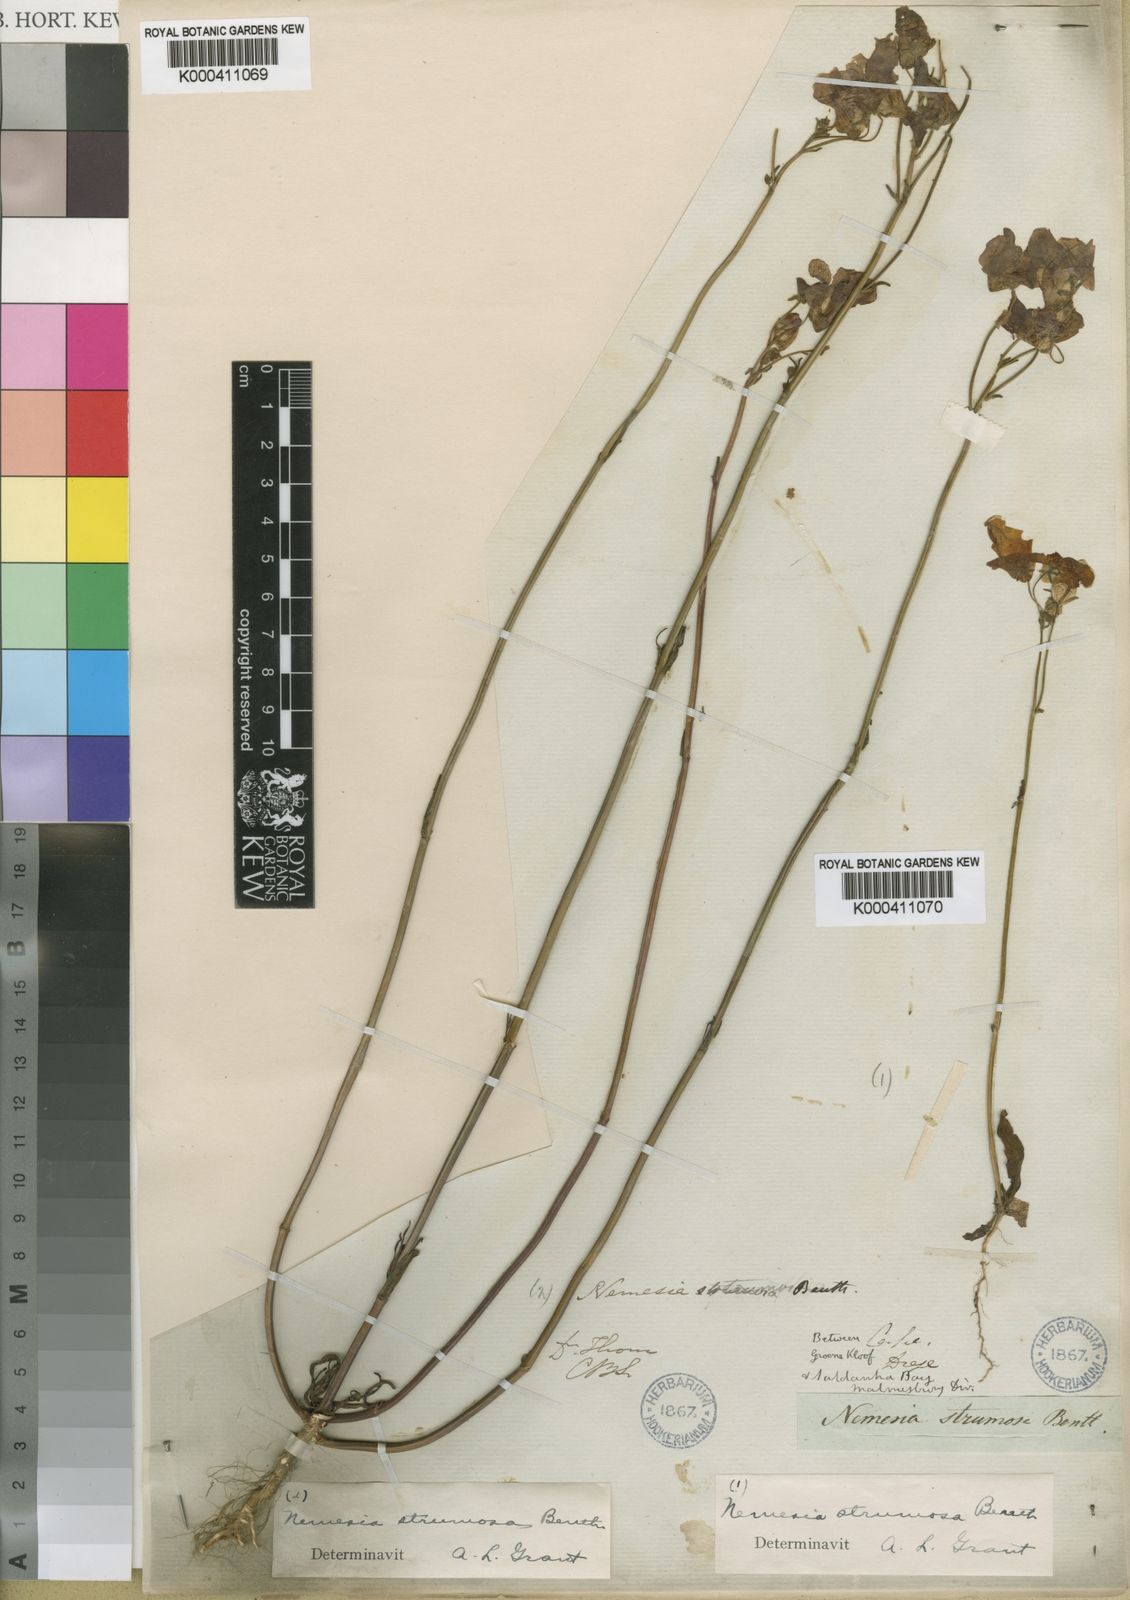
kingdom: Plantae
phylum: Tracheophyta
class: Magnoliopsida
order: Lamiales
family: Scrophulariaceae
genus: Nemesia
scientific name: Nemesia strumosa
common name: Cape-jewels
